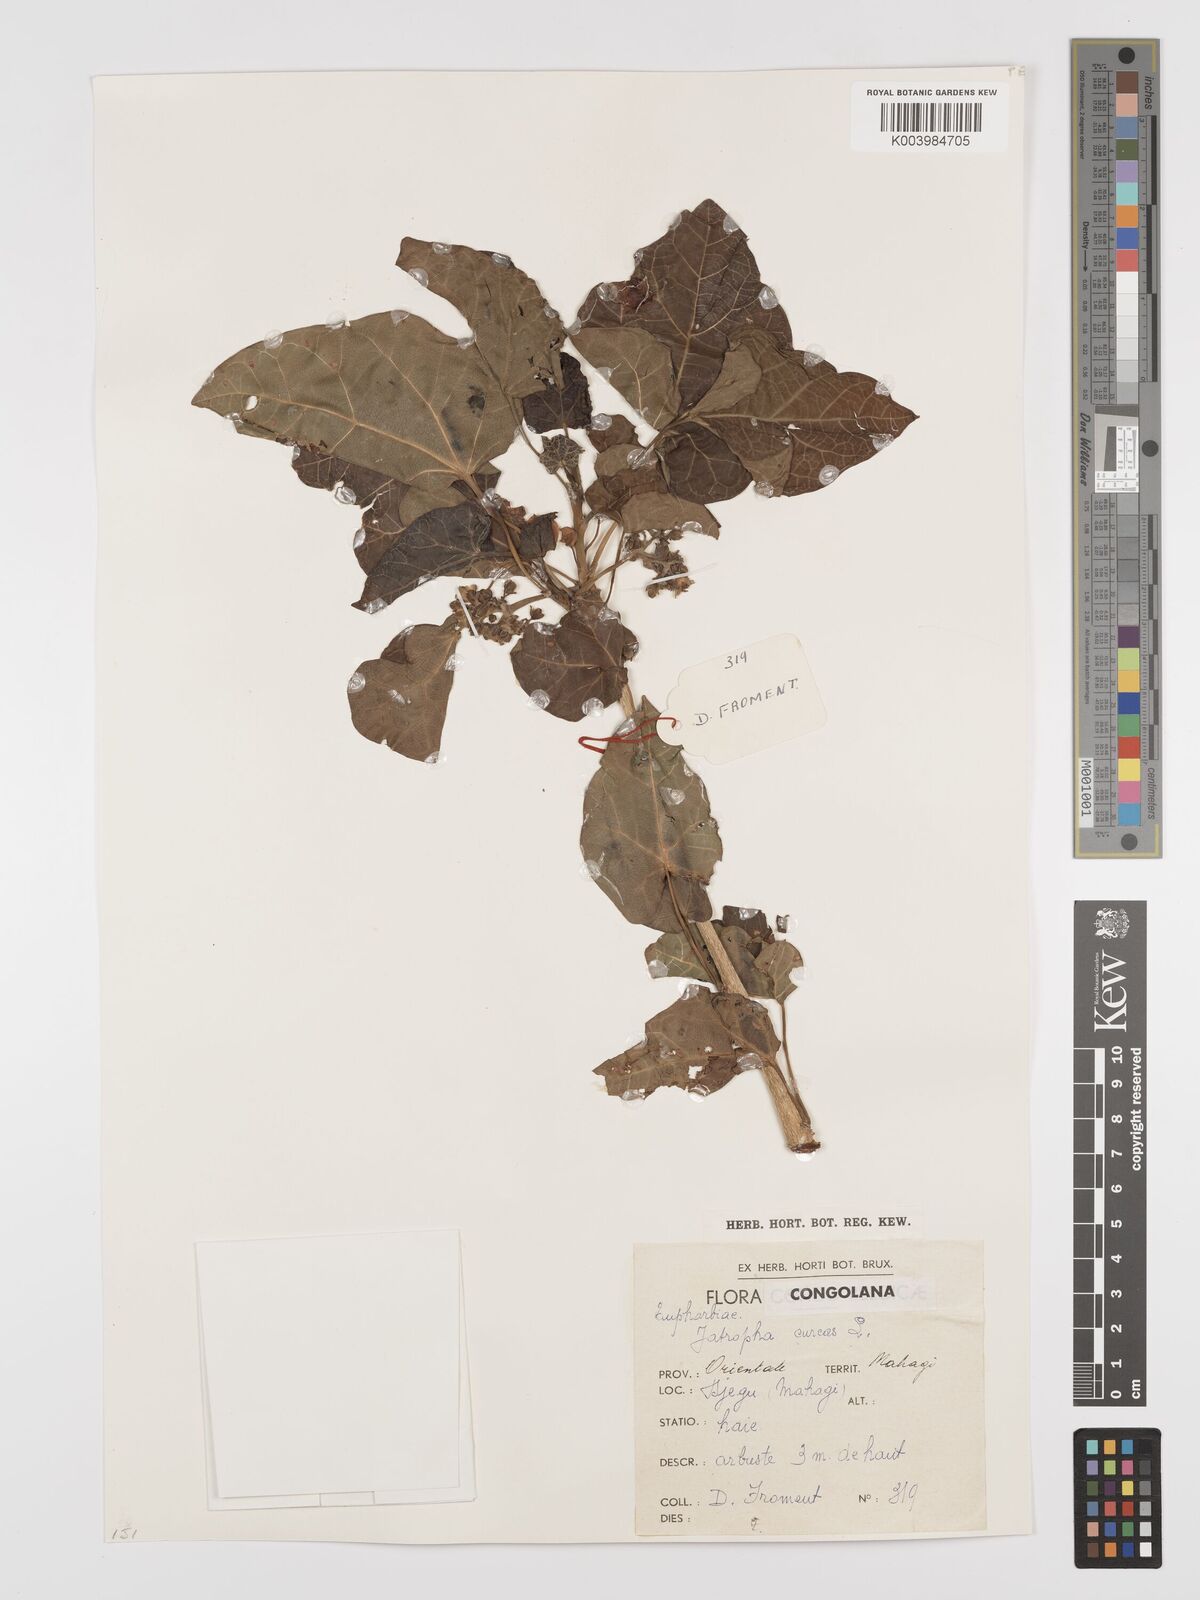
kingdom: Plantae
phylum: Tracheophyta
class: Magnoliopsida
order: Malpighiales
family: Euphorbiaceae
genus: Jatropha
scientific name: Jatropha curcas
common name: Barbados nut
